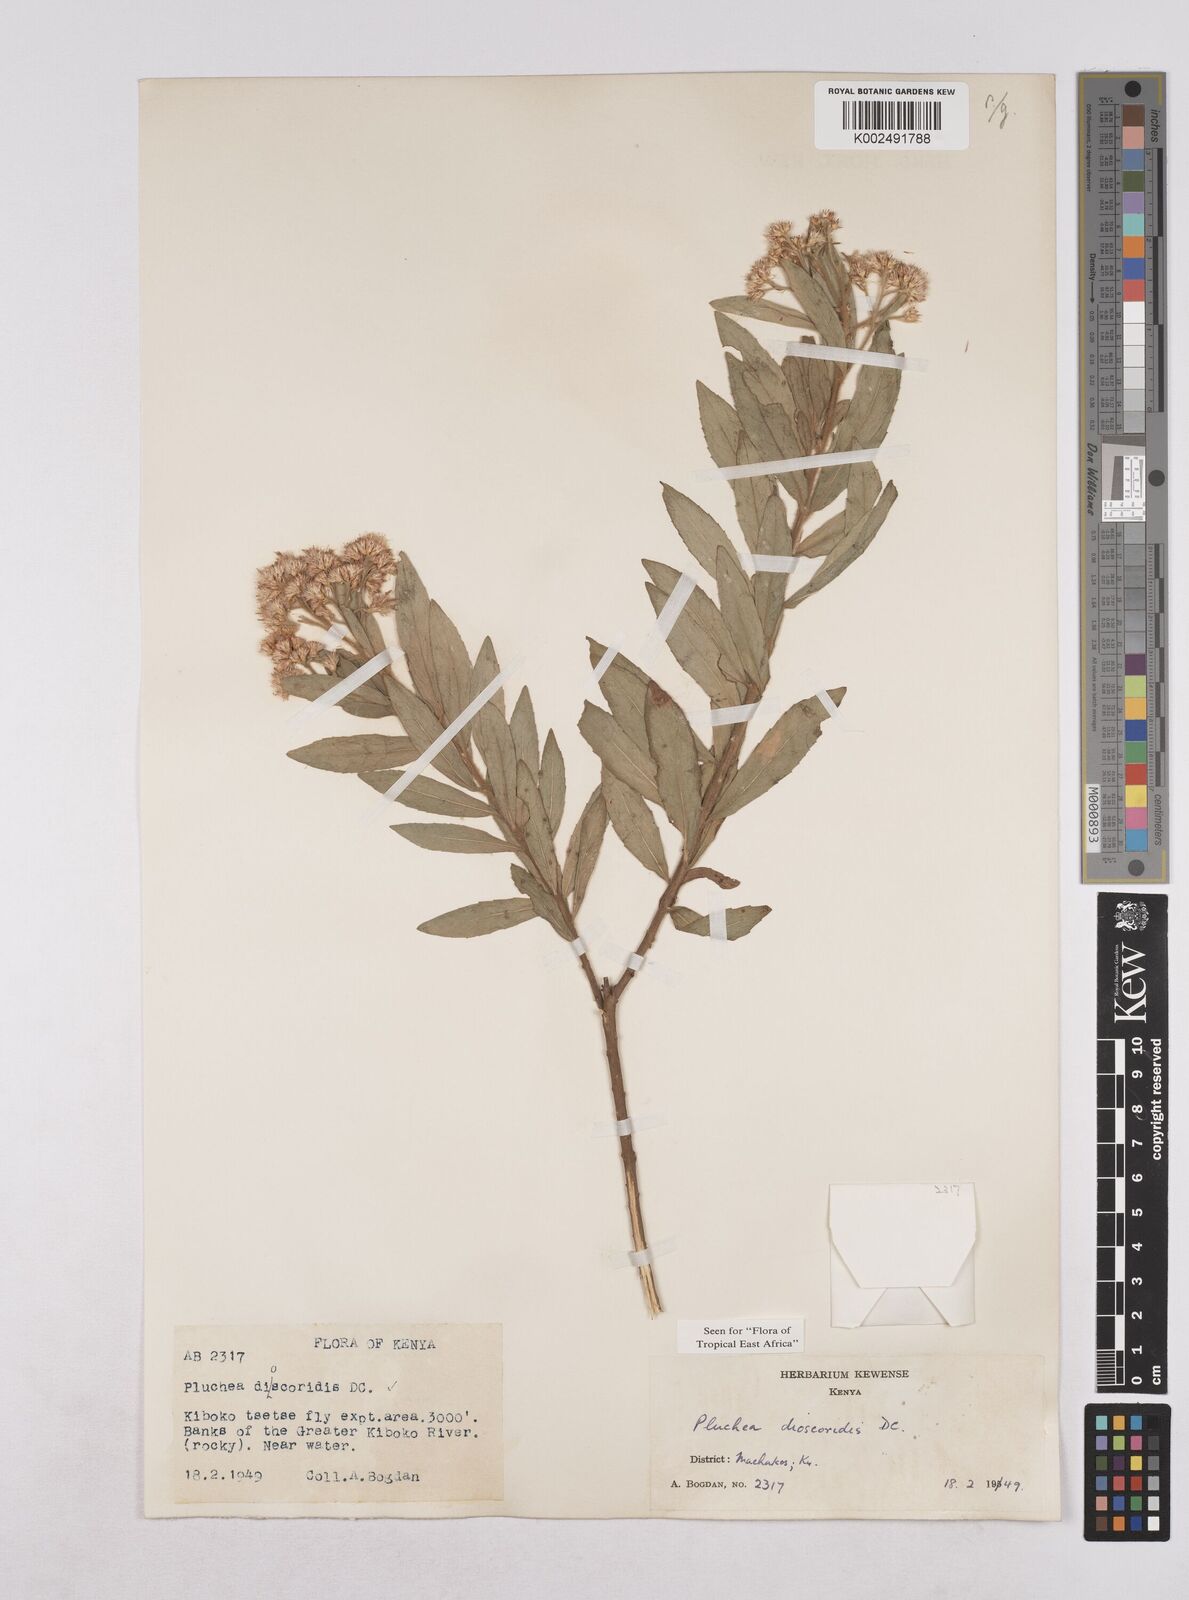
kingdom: Plantae
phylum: Tracheophyta
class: Magnoliopsida
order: Asterales
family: Asteraceae
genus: Pluchea
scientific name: Pluchea dioscoridis
